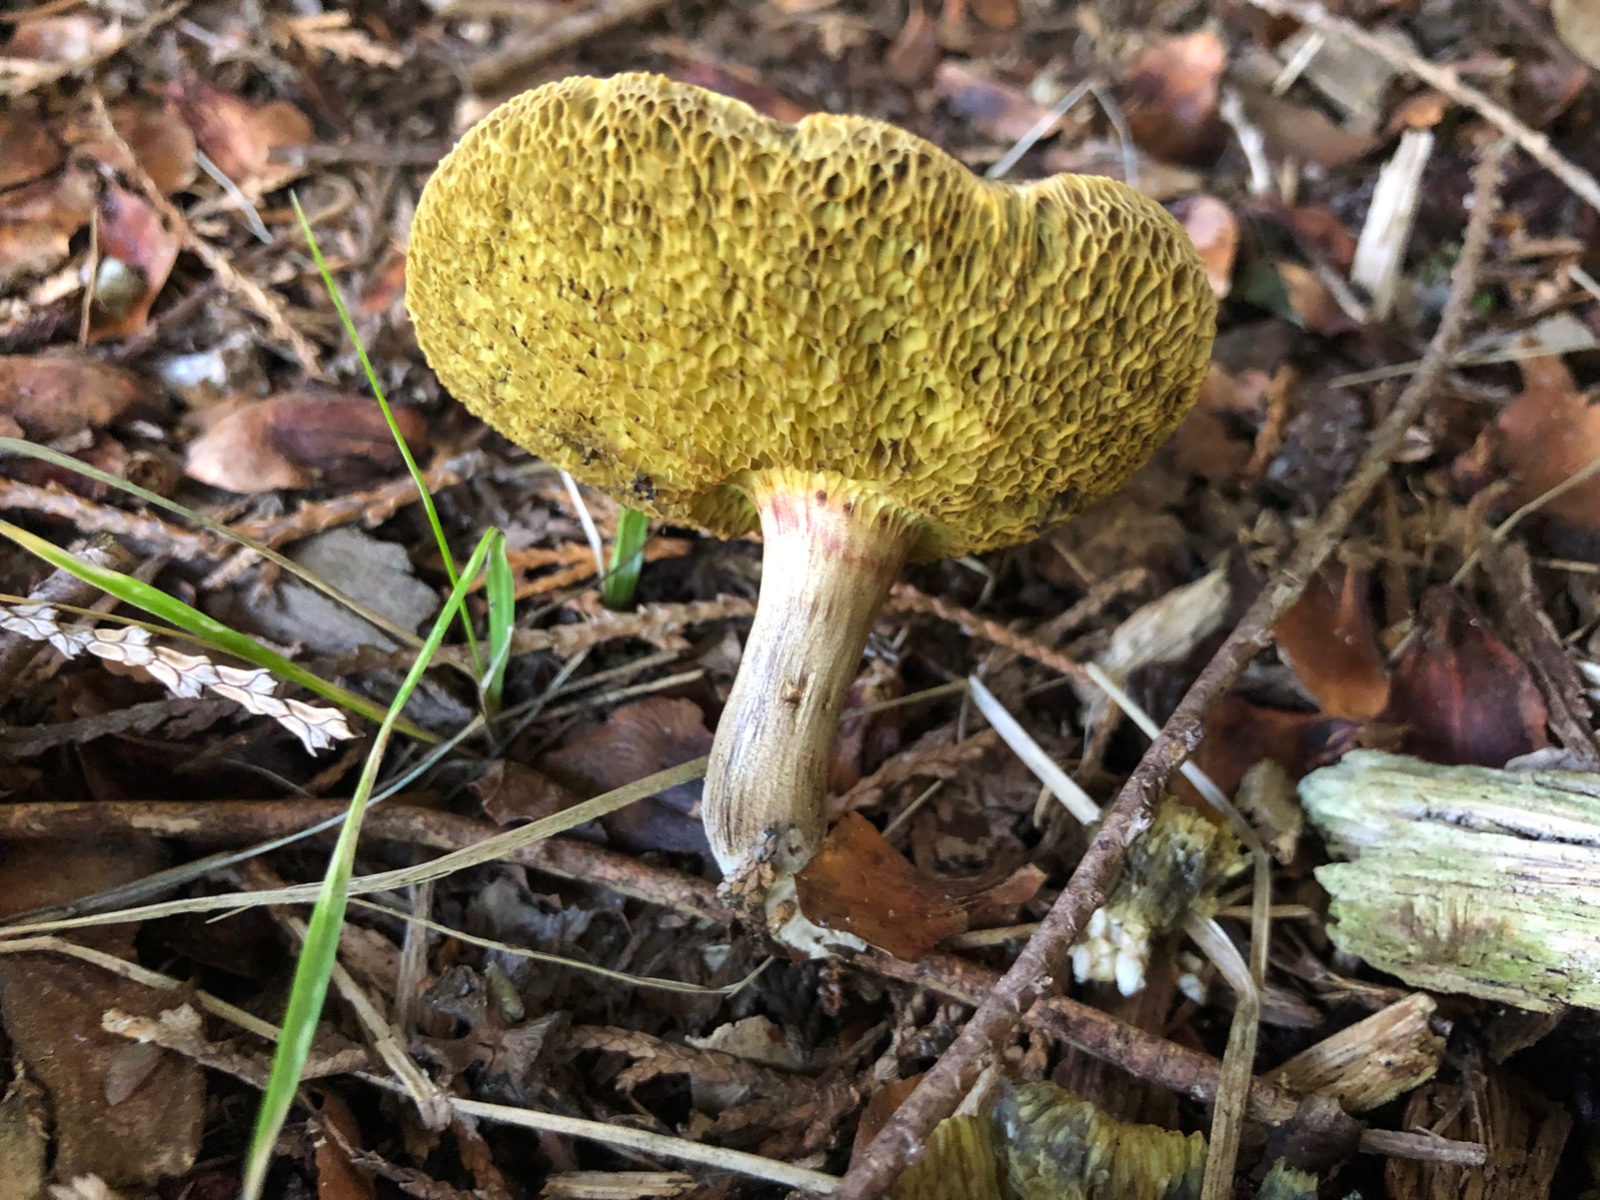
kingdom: Fungi
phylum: Basidiomycota
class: Agaricomycetes
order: Boletales
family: Boletaceae
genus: Xerocomellus
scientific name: Xerocomellus porosporus
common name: hvidsprukken rørhat
